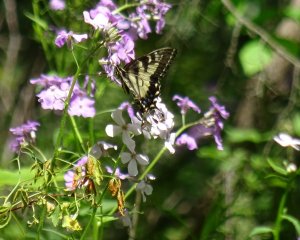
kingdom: Animalia
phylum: Arthropoda
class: Insecta
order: Lepidoptera
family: Papilionidae
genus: Pterourus
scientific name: Pterourus glaucus
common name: Eastern Tiger Swallowtail
